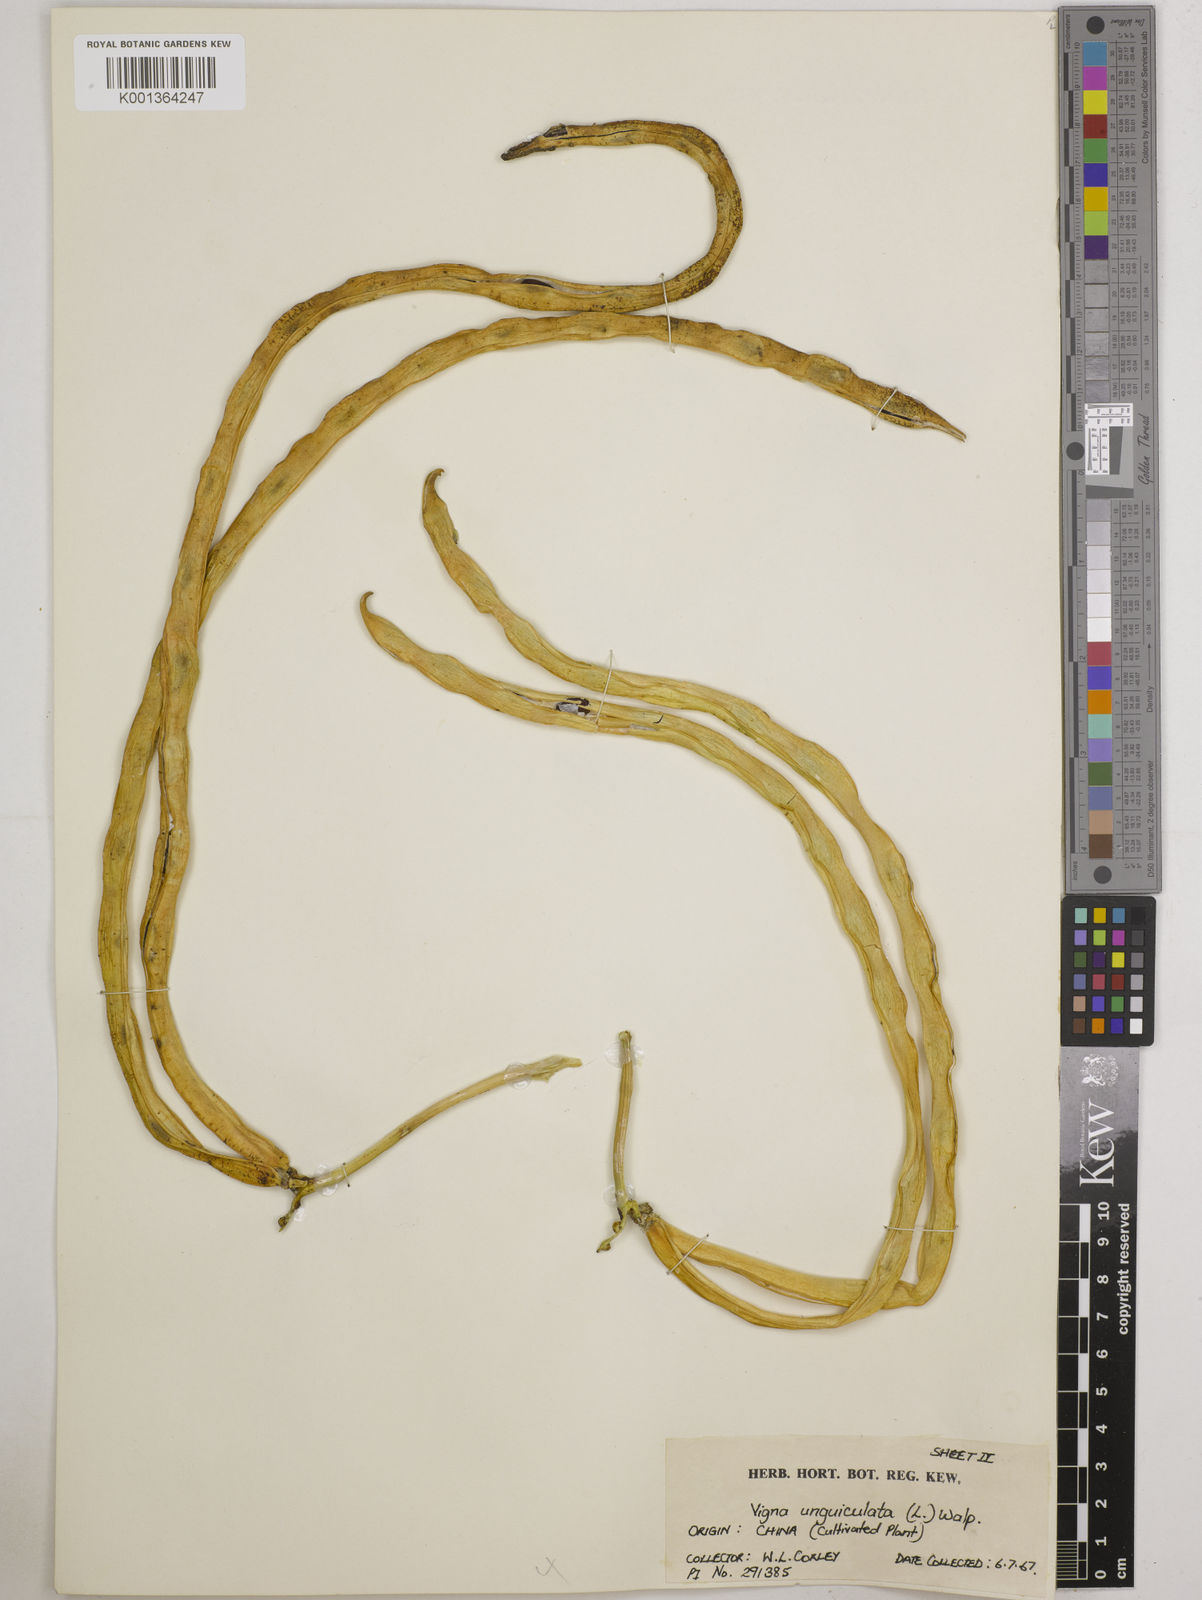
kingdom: Plantae
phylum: Tracheophyta
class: Magnoliopsida
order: Fabales
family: Fabaceae
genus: Vigna
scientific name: Vigna unguiculata
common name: Cowpea
